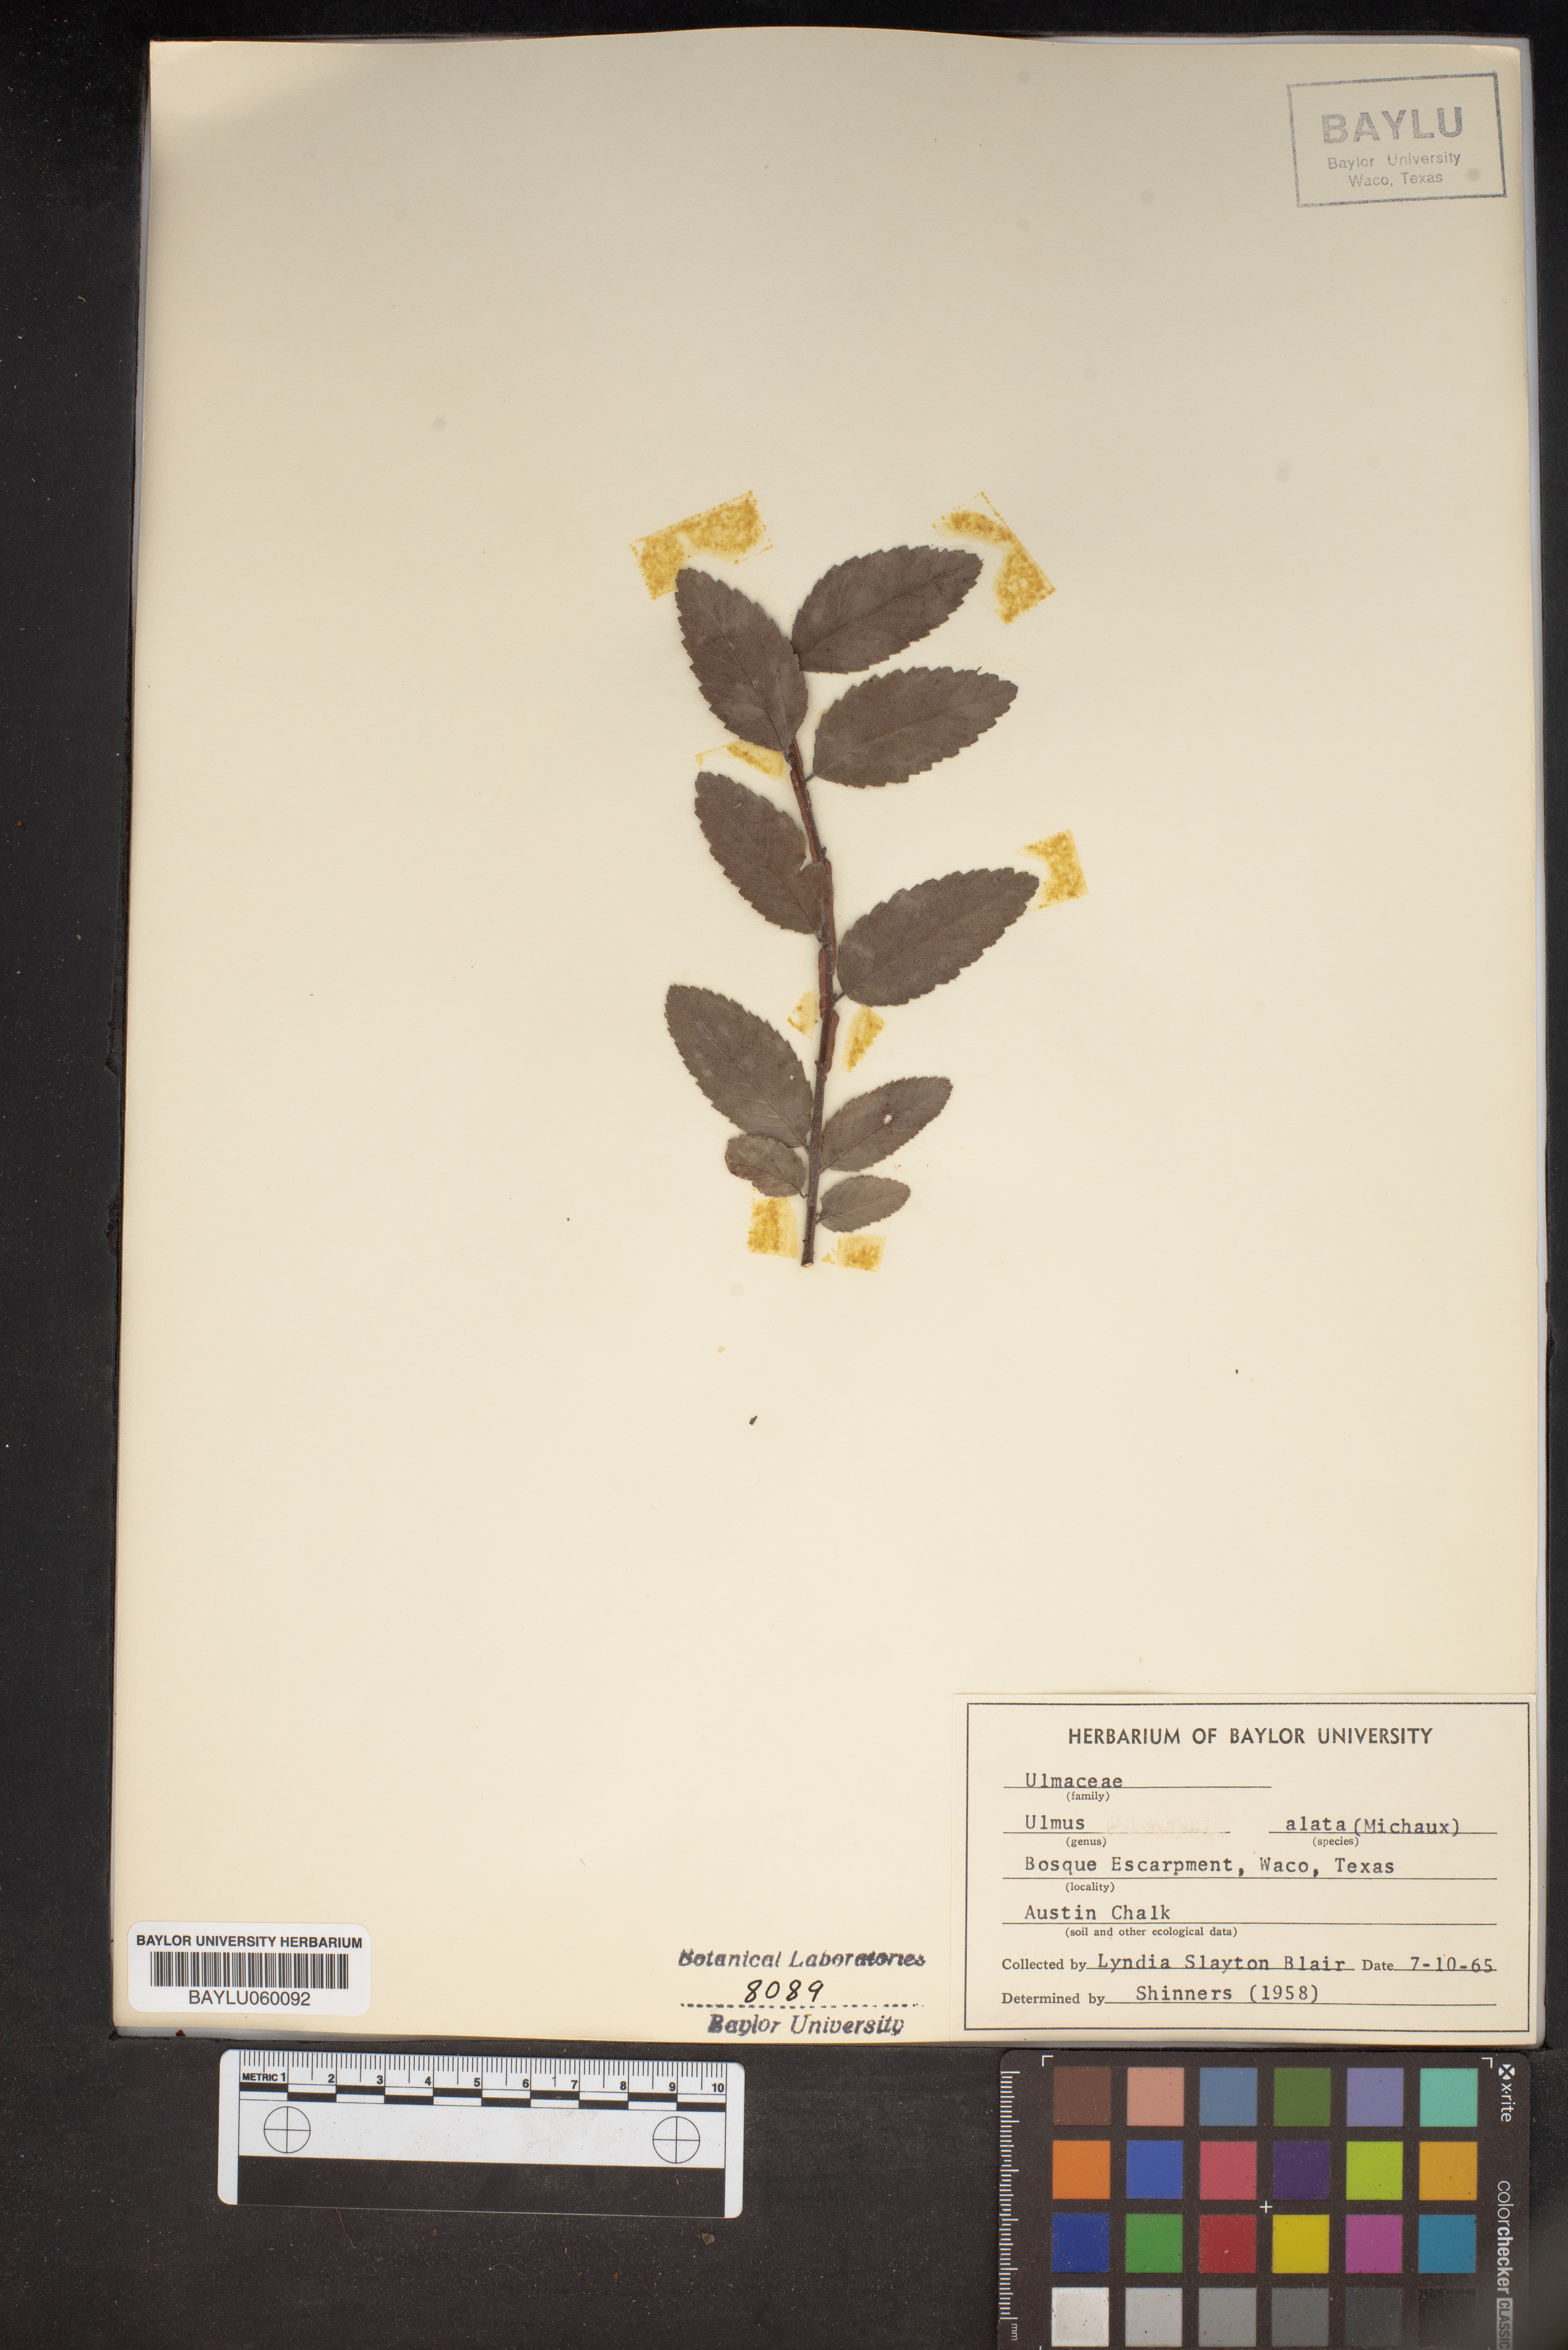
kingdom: Plantae
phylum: Tracheophyta
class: Magnoliopsida
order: Rosales
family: Ulmaceae
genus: Ulmus
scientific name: Ulmus alata
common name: Winged elm
